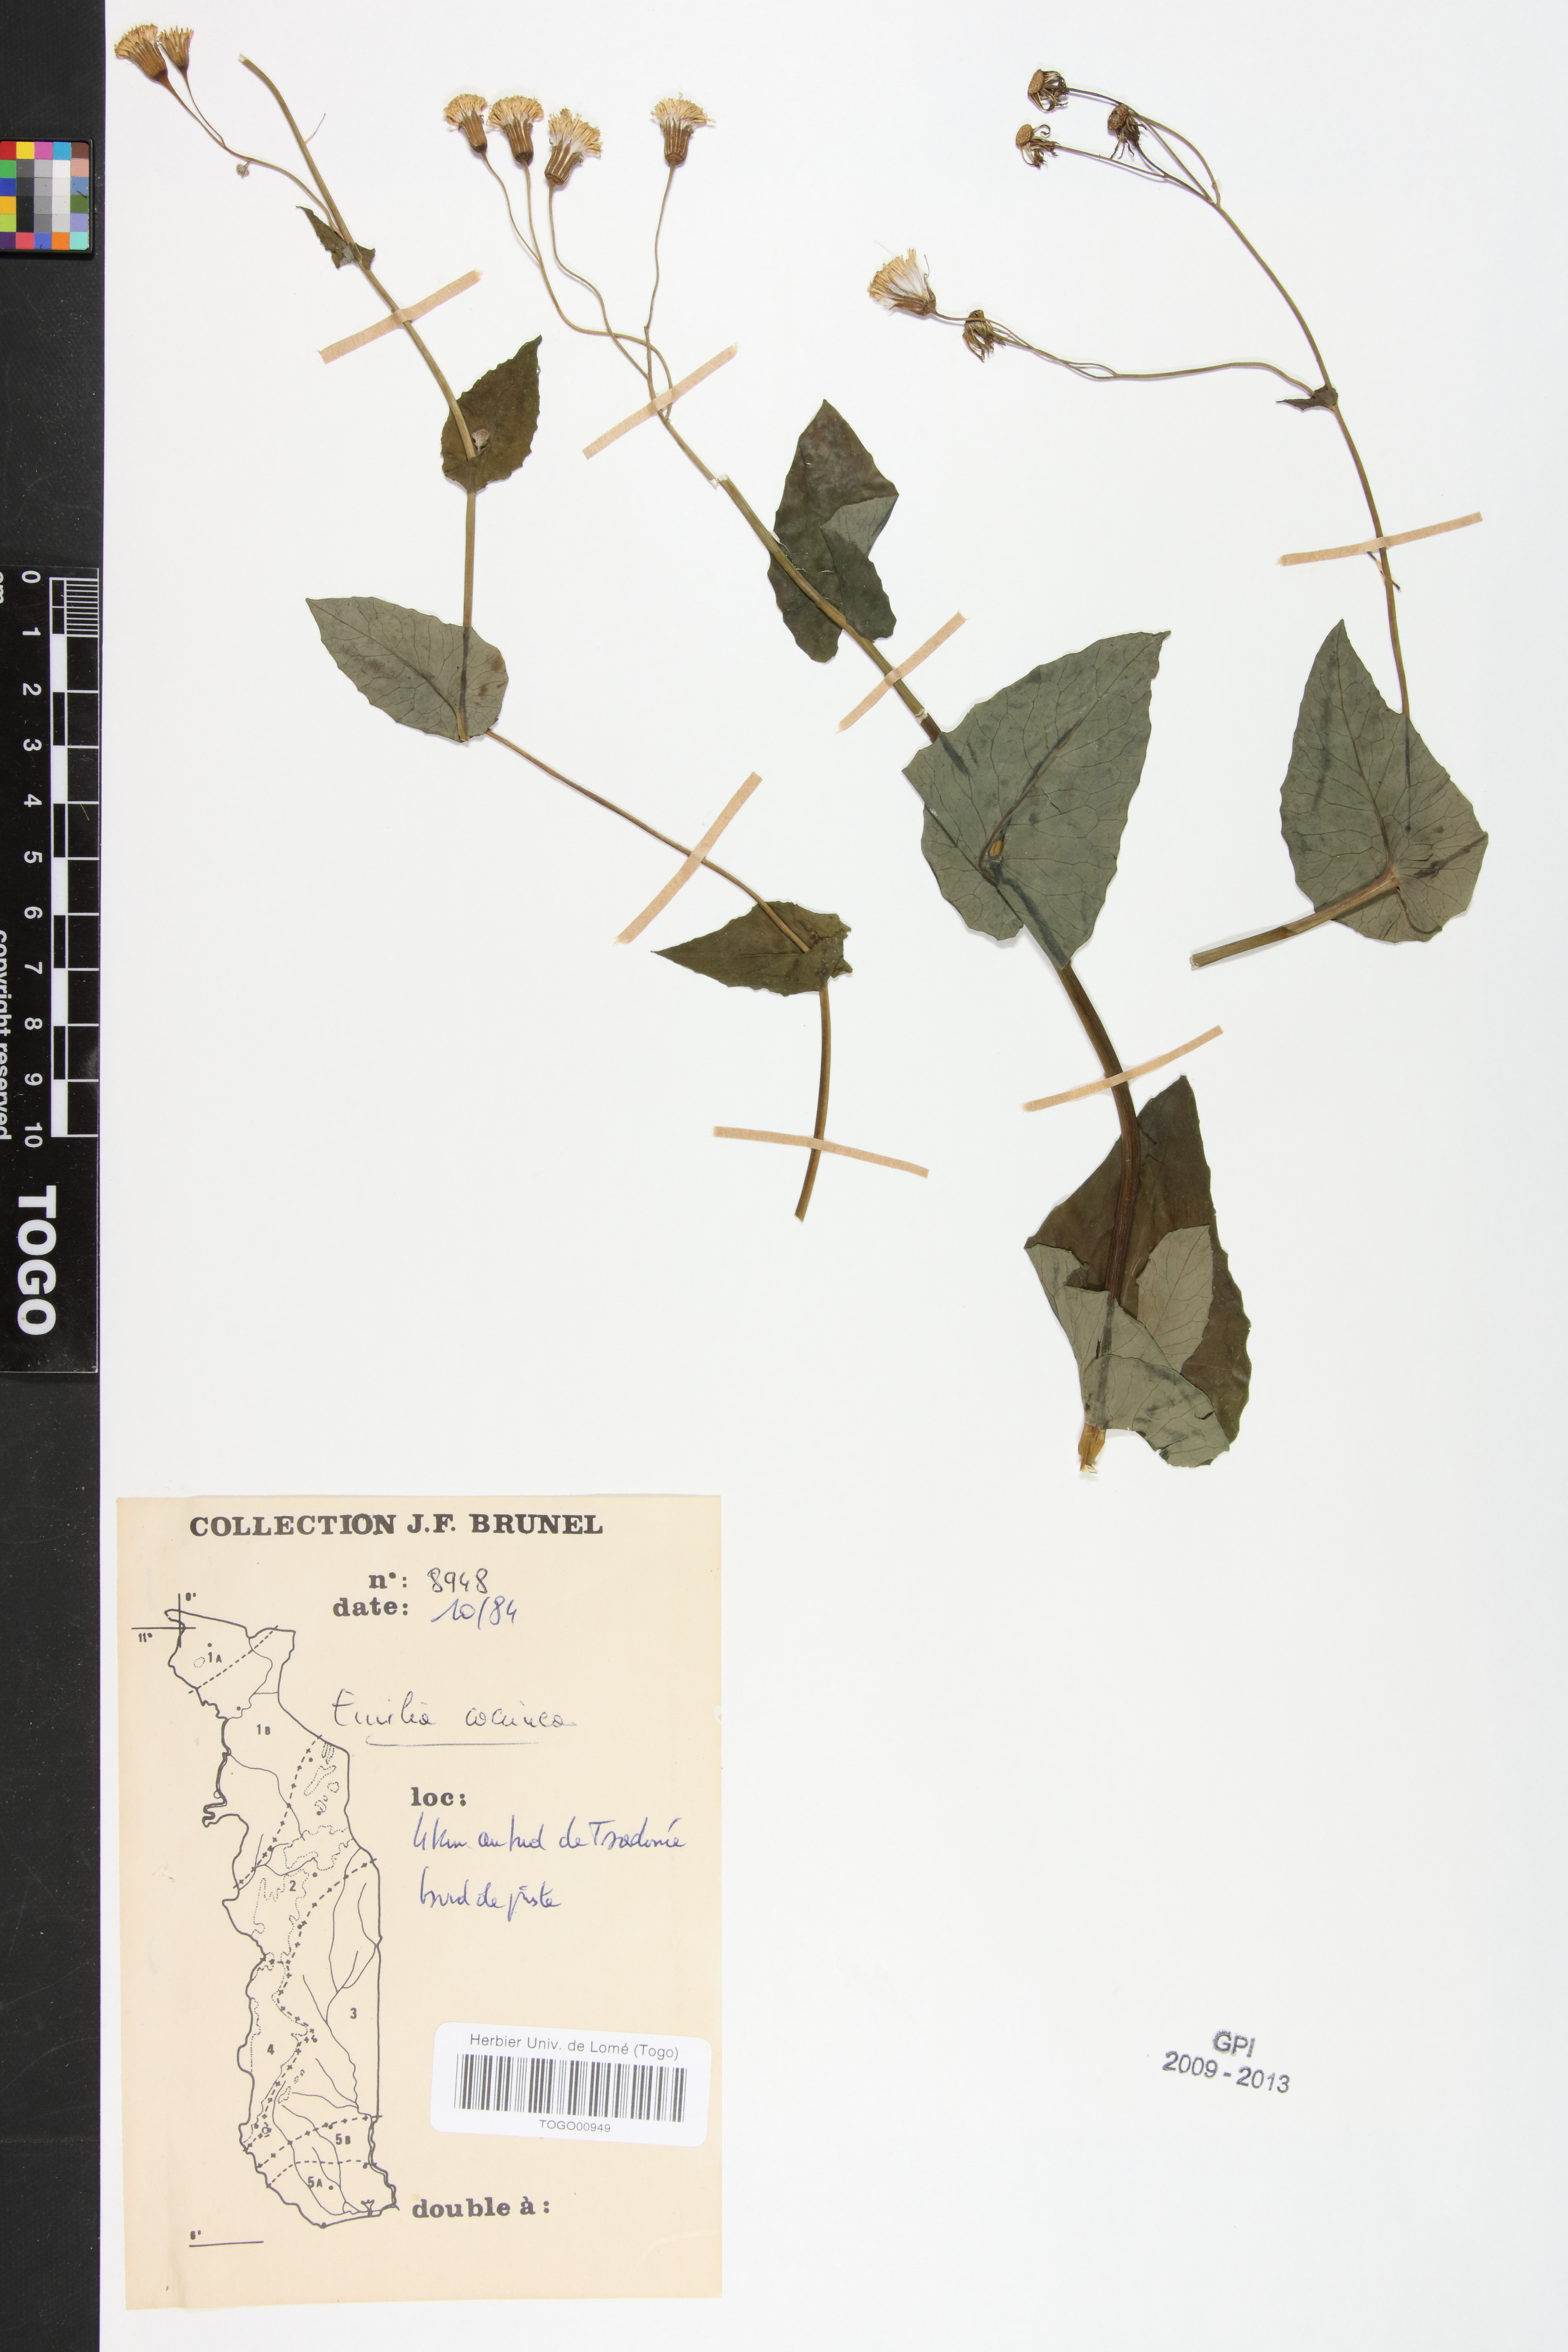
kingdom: Plantae
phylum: Tracheophyta
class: Magnoliopsida
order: Asterales
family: Asteraceae
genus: Emilia
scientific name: Emilia coccinea
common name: Scarlet tasselflower
